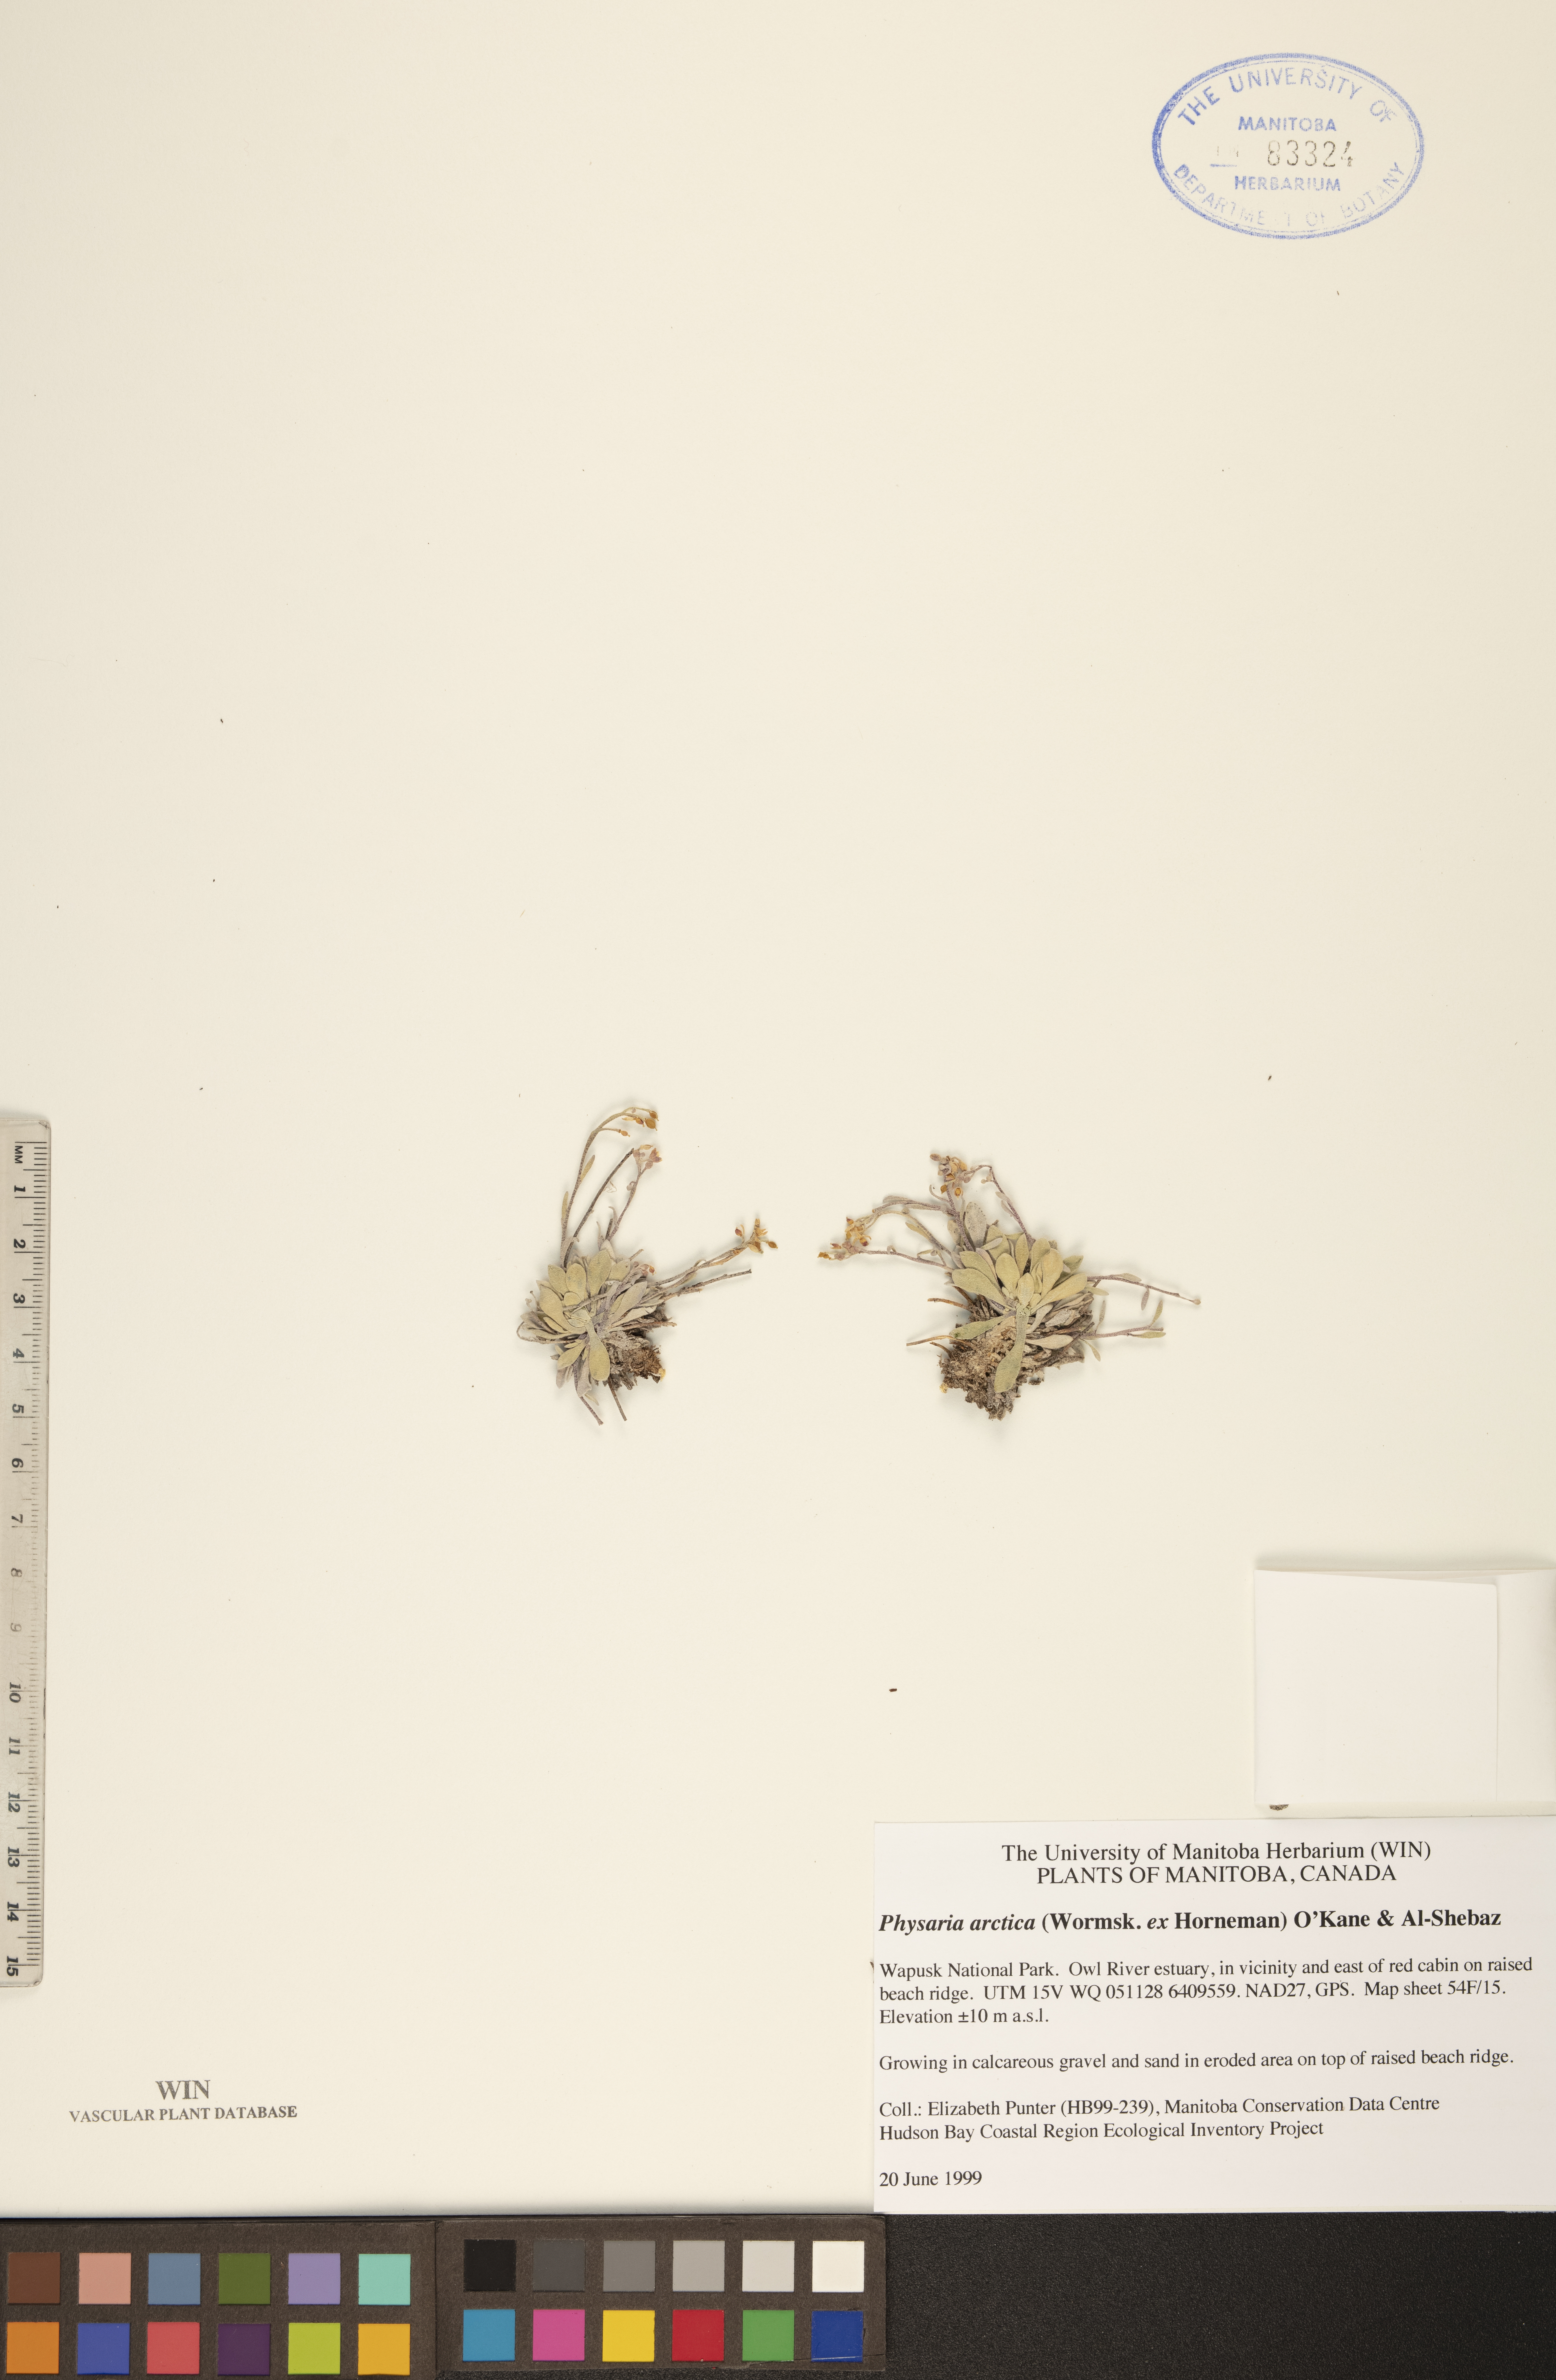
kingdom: Plantae
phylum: Tracheophyta
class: Magnoliopsida
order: Brassicales
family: Brassicaceae
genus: Physaria
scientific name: Physaria arctica
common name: Arctic bladderpod
